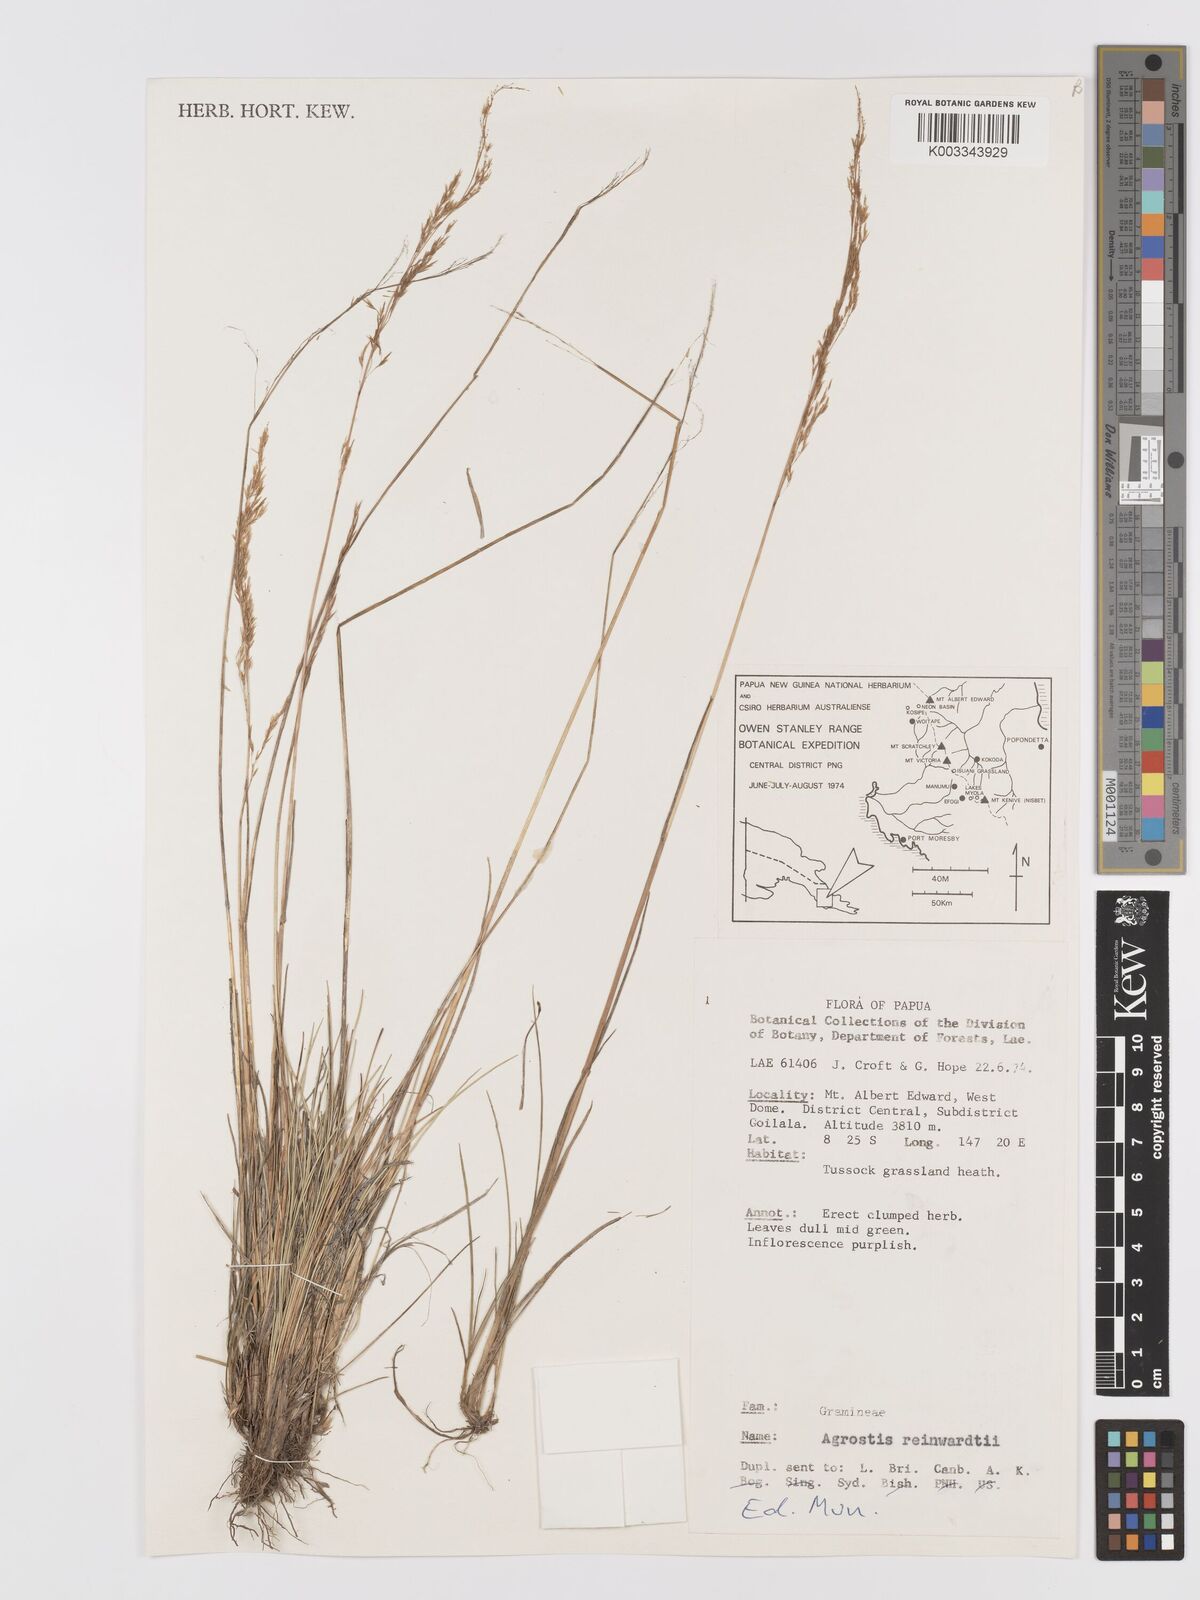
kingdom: Plantae
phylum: Tracheophyta
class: Liliopsida
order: Poales
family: Poaceae
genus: Agrostis
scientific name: Agrostis infirma
